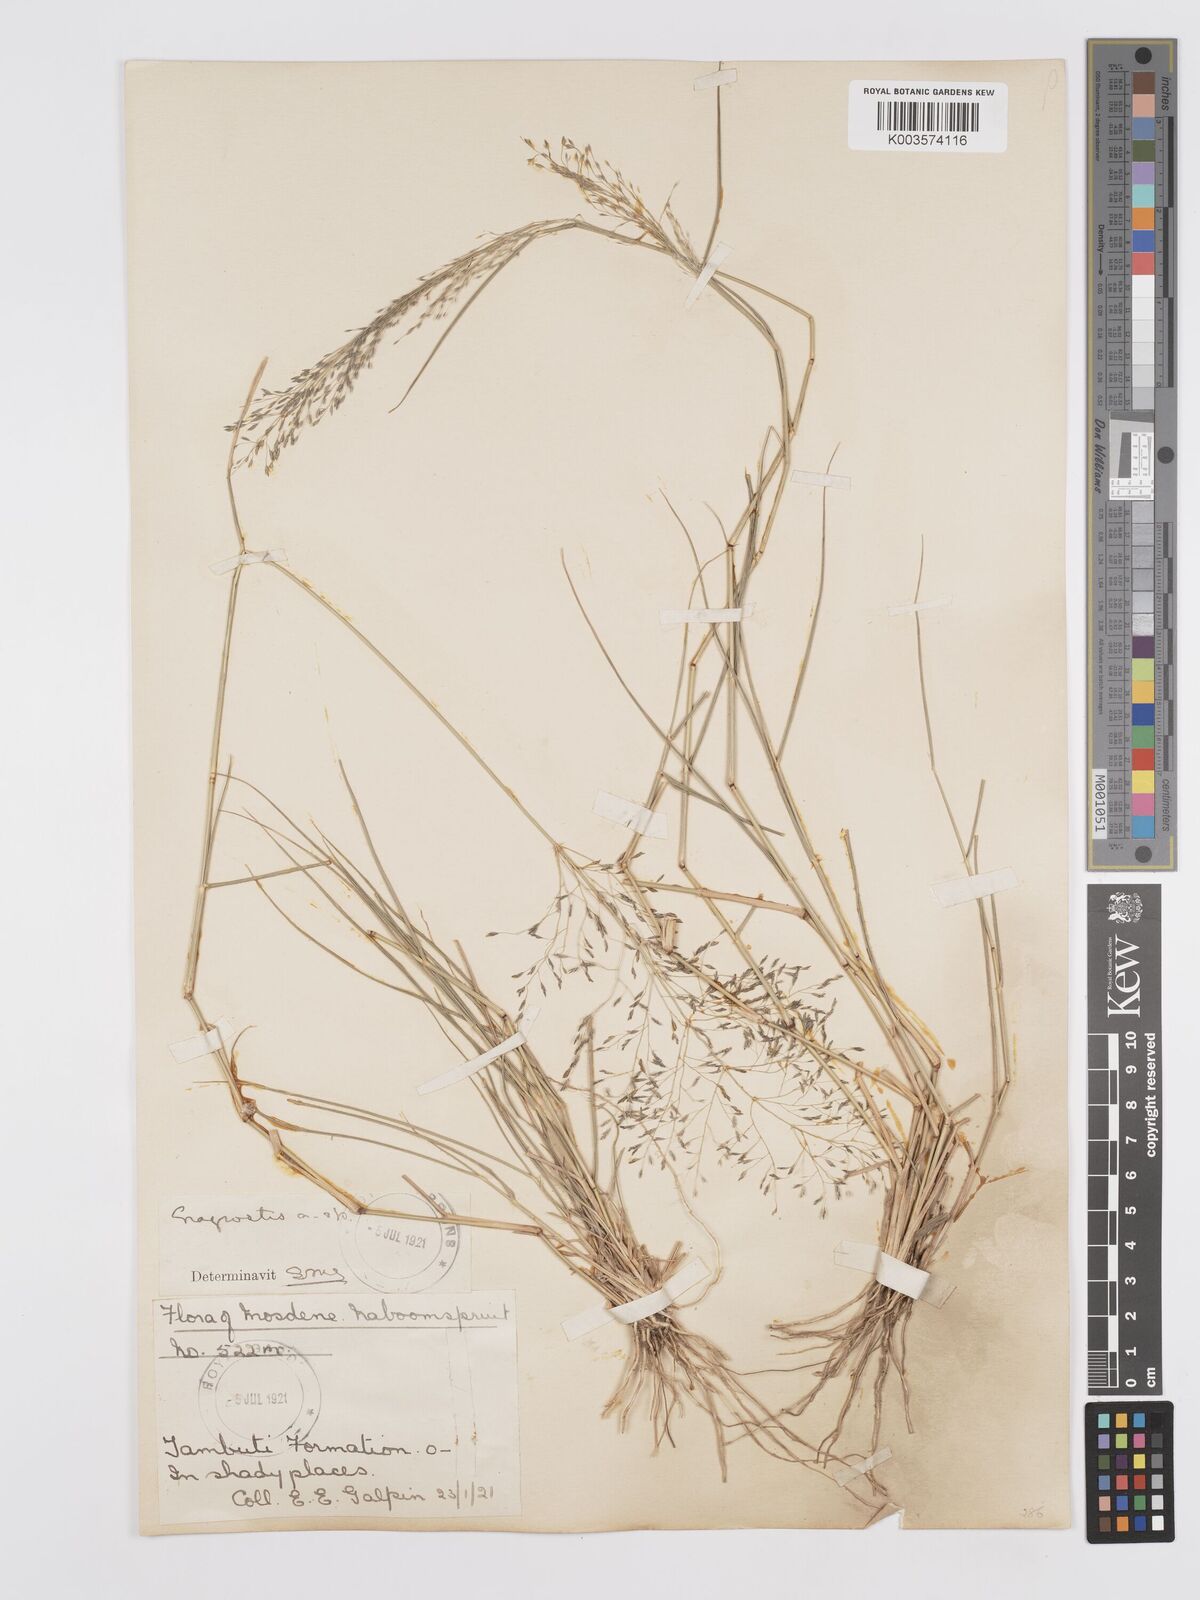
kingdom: Plantae
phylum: Tracheophyta
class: Liliopsida
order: Poales
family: Poaceae
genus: Eragrostis
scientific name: Eragrostis cylindriflora
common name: Cylinderflower lovegrass
